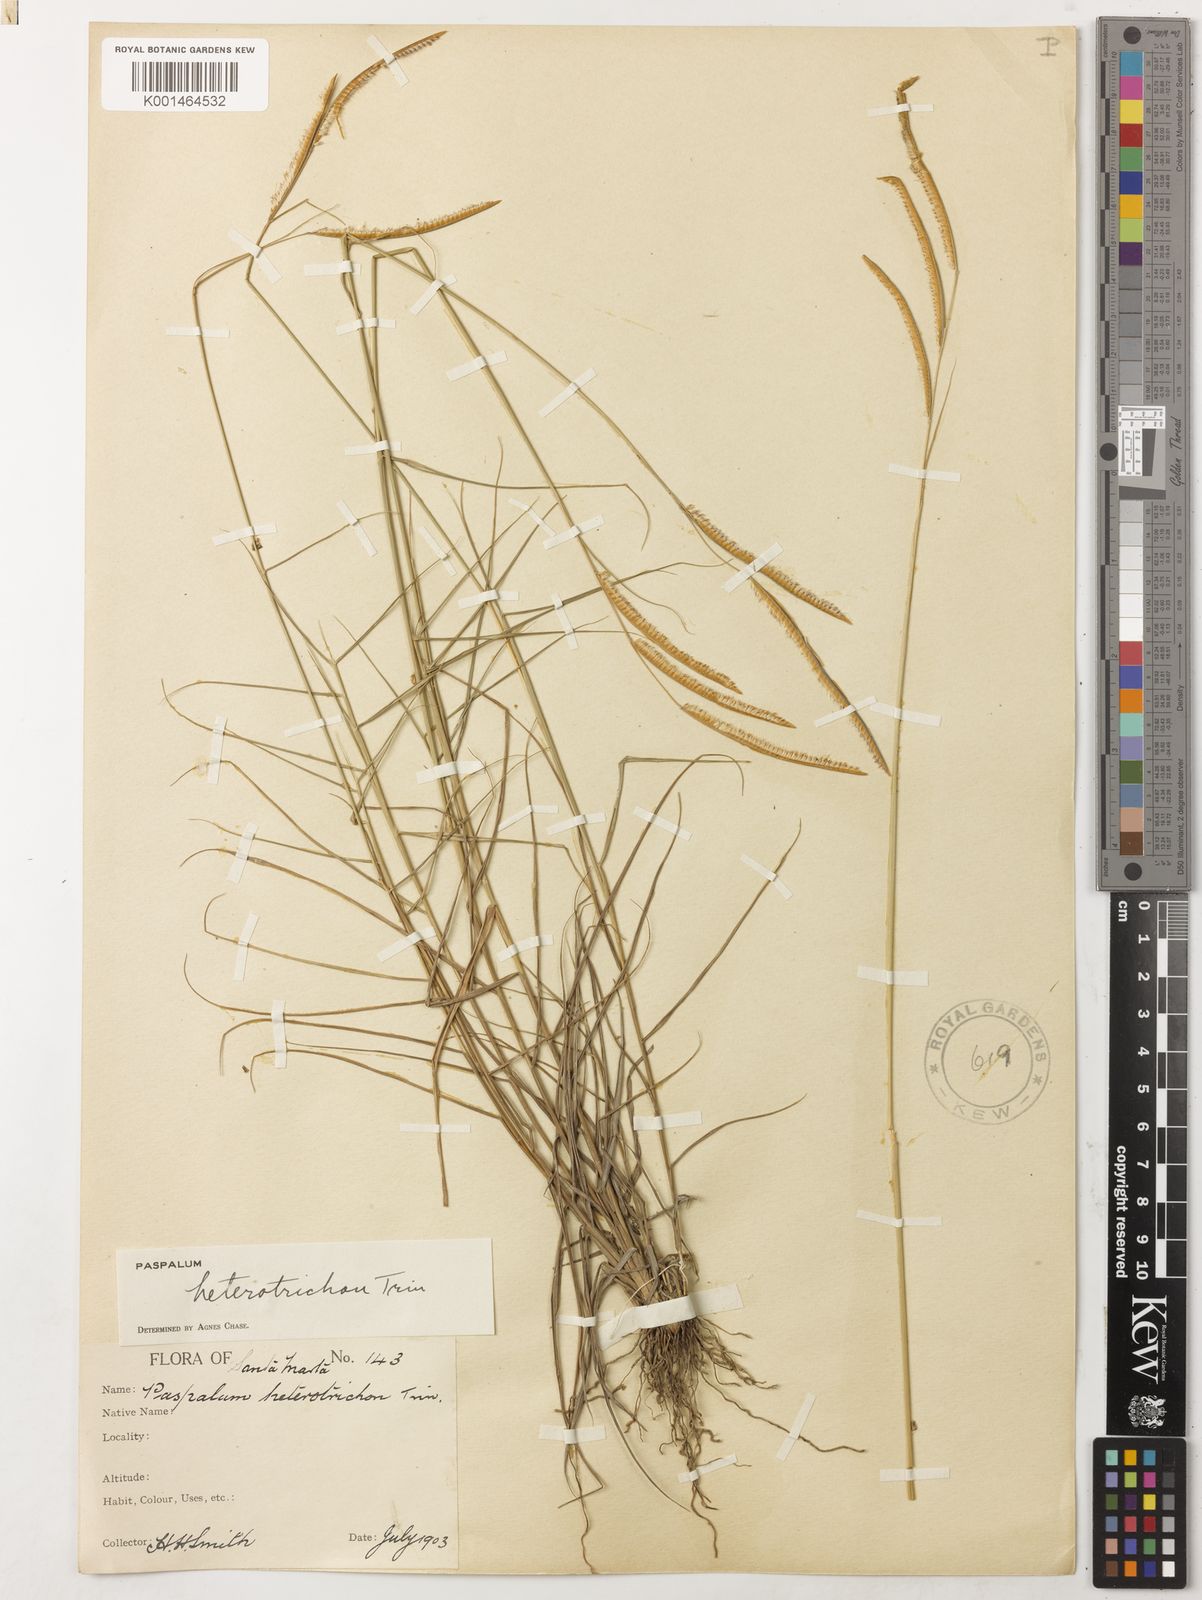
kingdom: Plantae
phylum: Tracheophyta
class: Liliopsida
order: Poales
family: Poaceae
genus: Paspalum
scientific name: Paspalum heterotrichon
